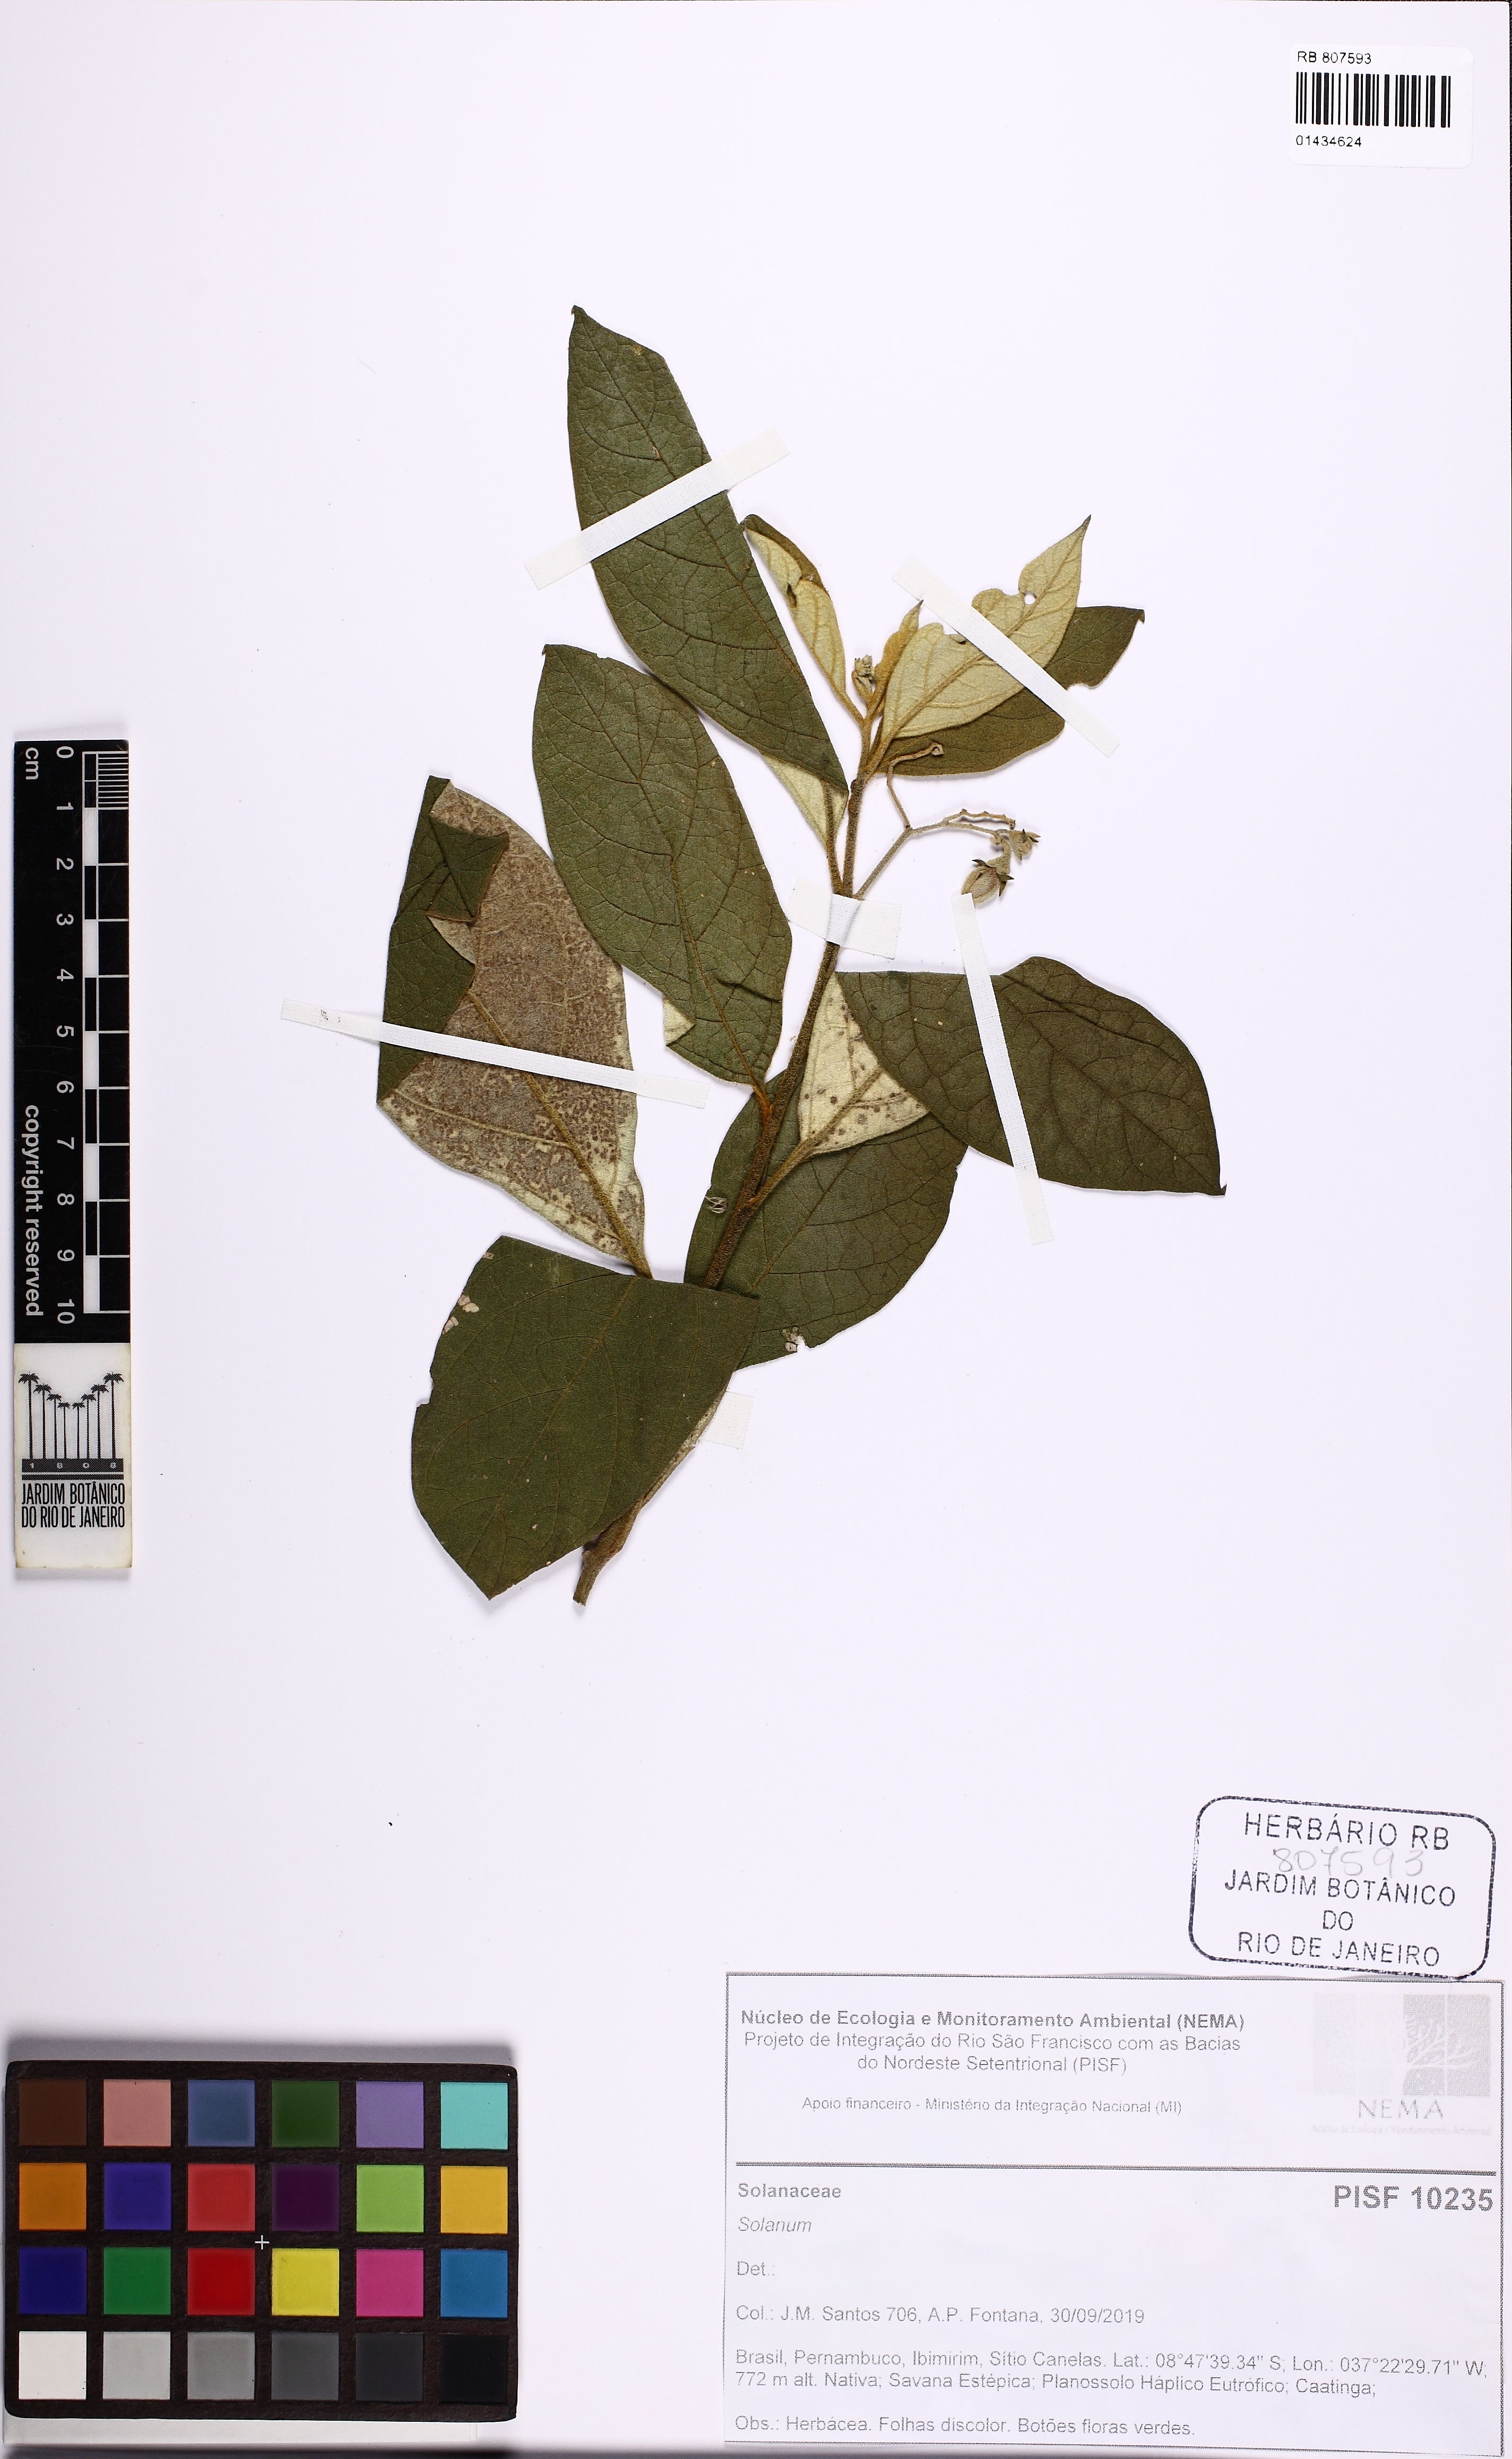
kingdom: Plantae
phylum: Tracheophyta
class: Magnoliopsida
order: Solanales
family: Solanaceae
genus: Solanum
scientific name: Solanum
